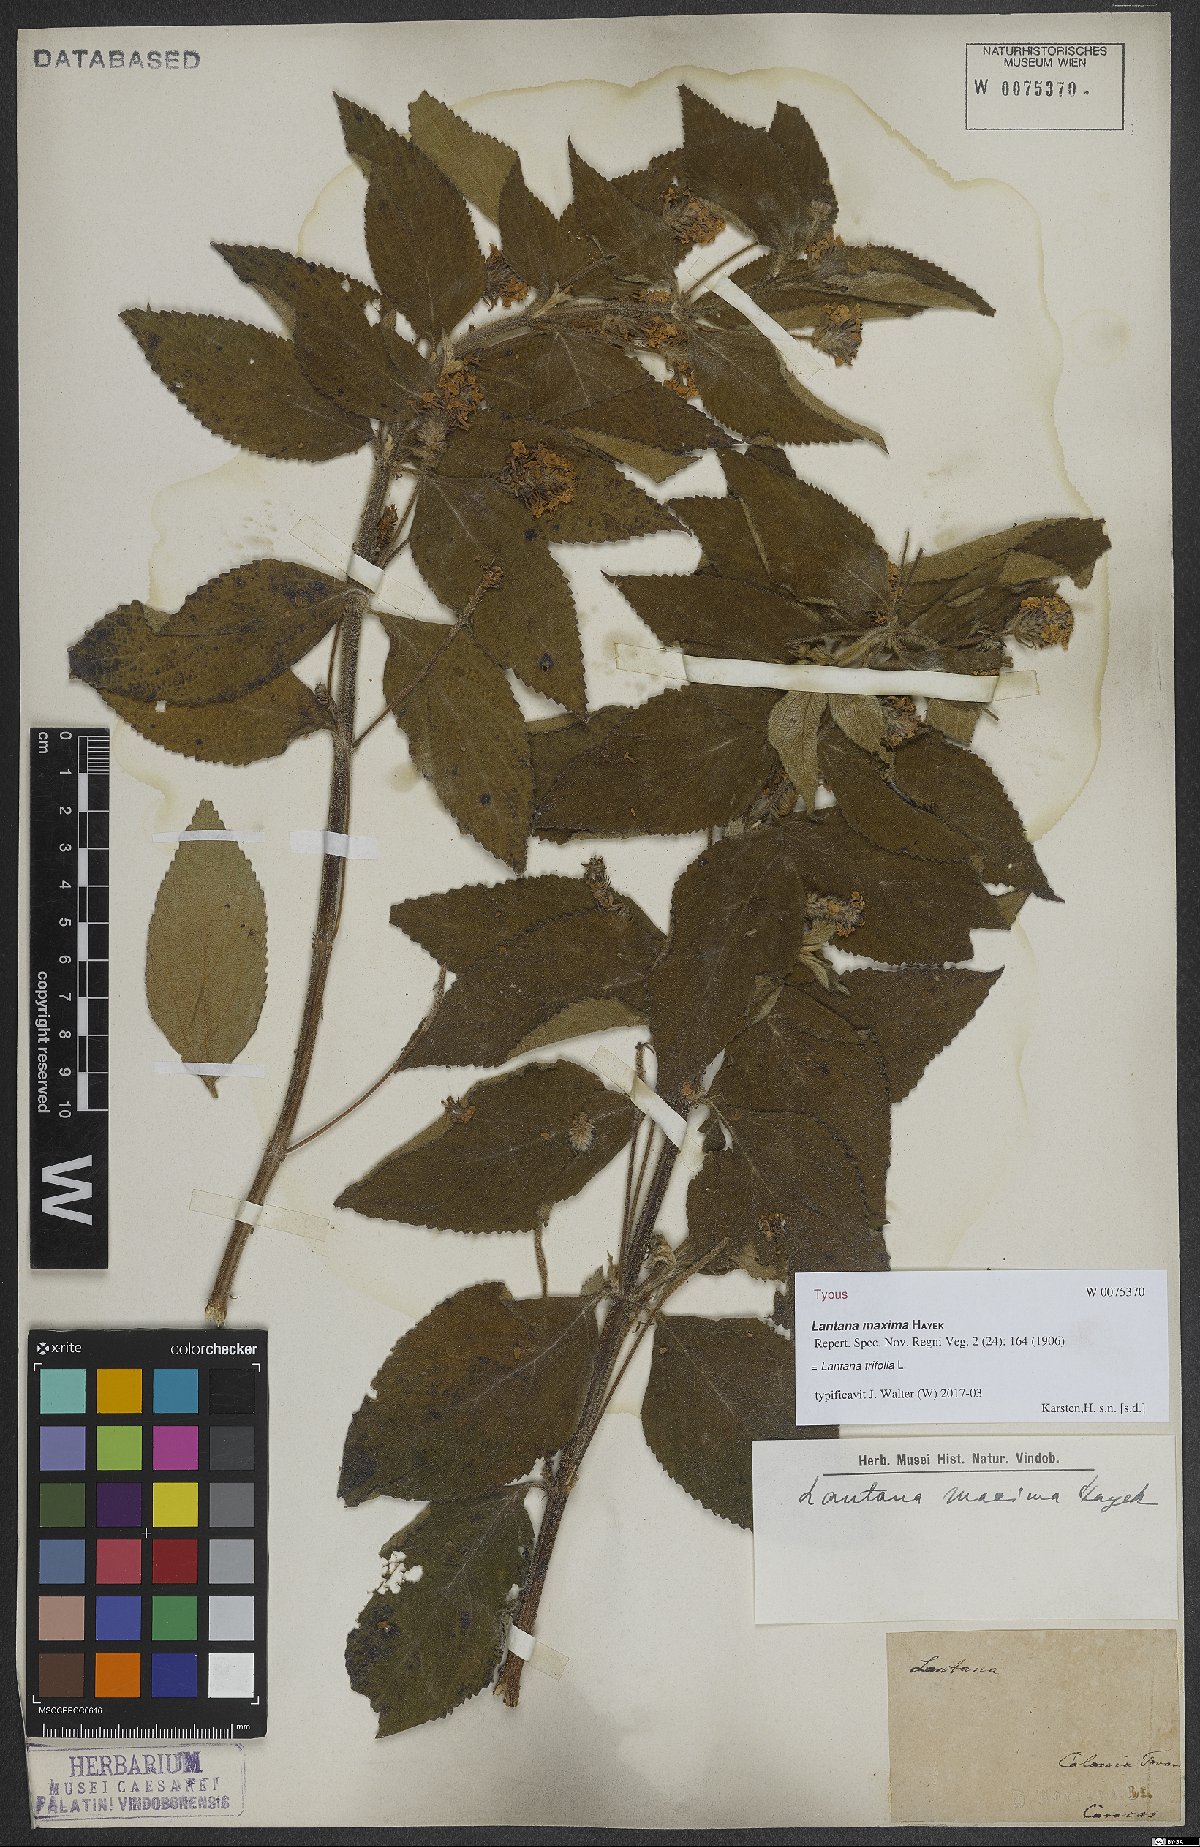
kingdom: Plantae
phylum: Tracheophyta
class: Magnoliopsida
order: Lamiales
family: Verbenaceae
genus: Lantana
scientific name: Lantana trifolia
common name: Sweet-sage
